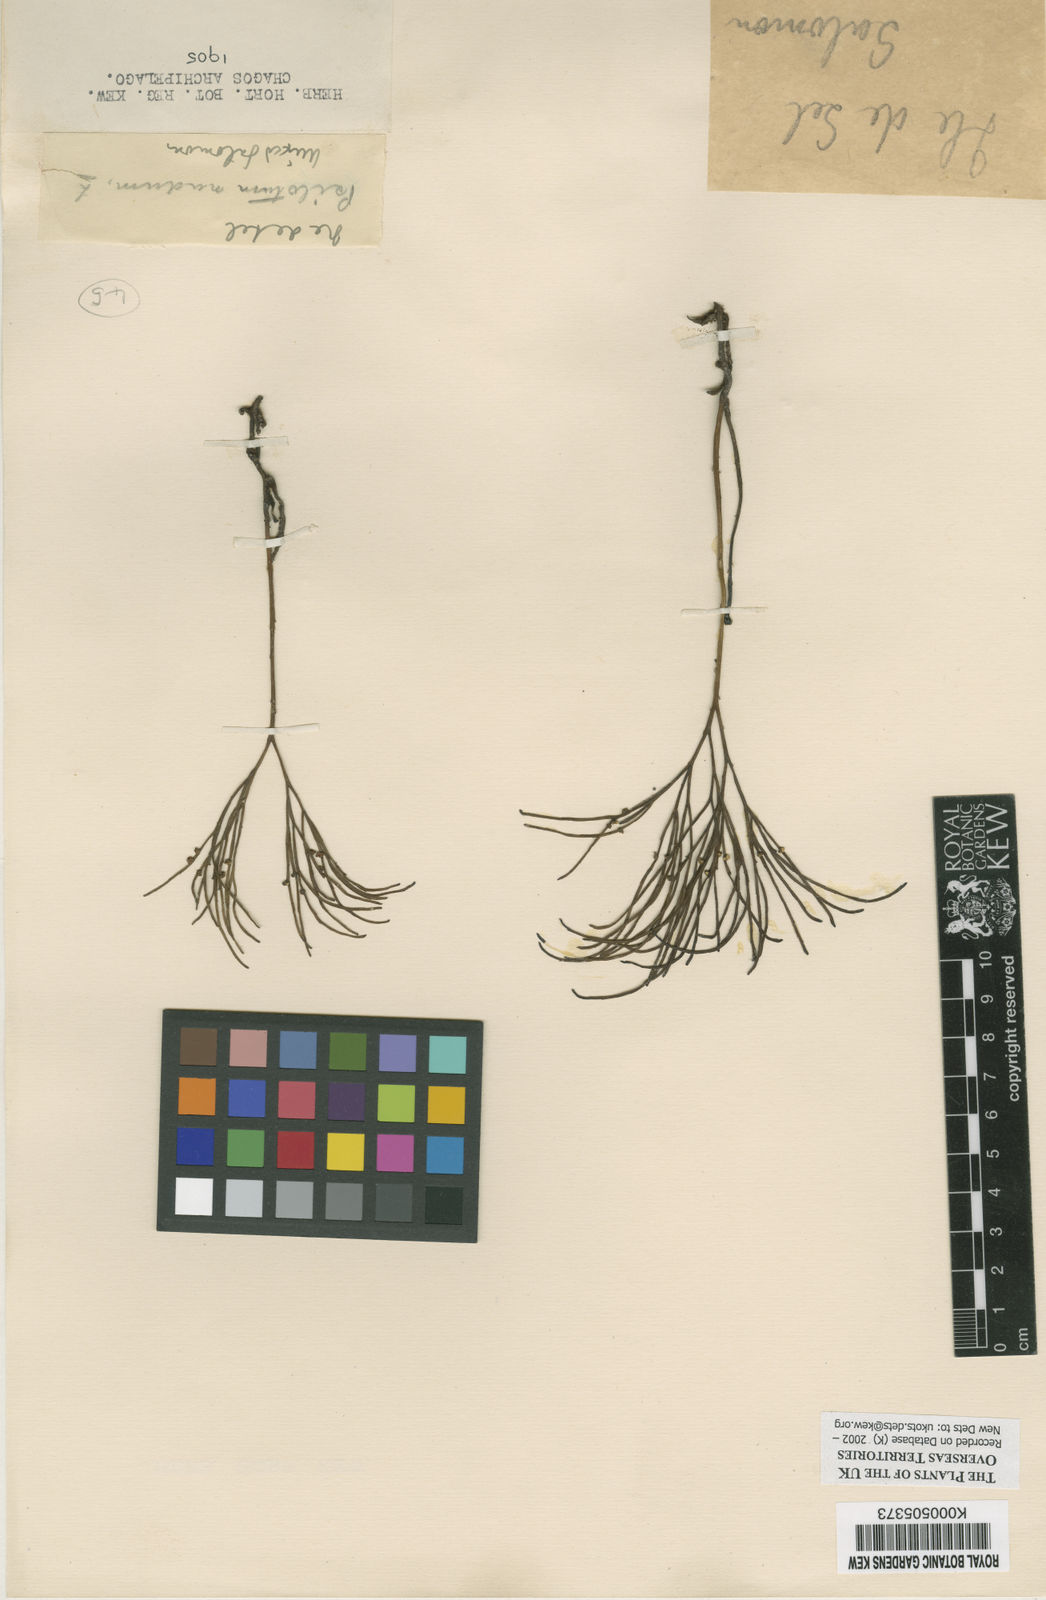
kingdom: Plantae
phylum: Tracheophyta
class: Polypodiopsida
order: Psilotales
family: Psilotaceae
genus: Psilotum
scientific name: Psilotum
